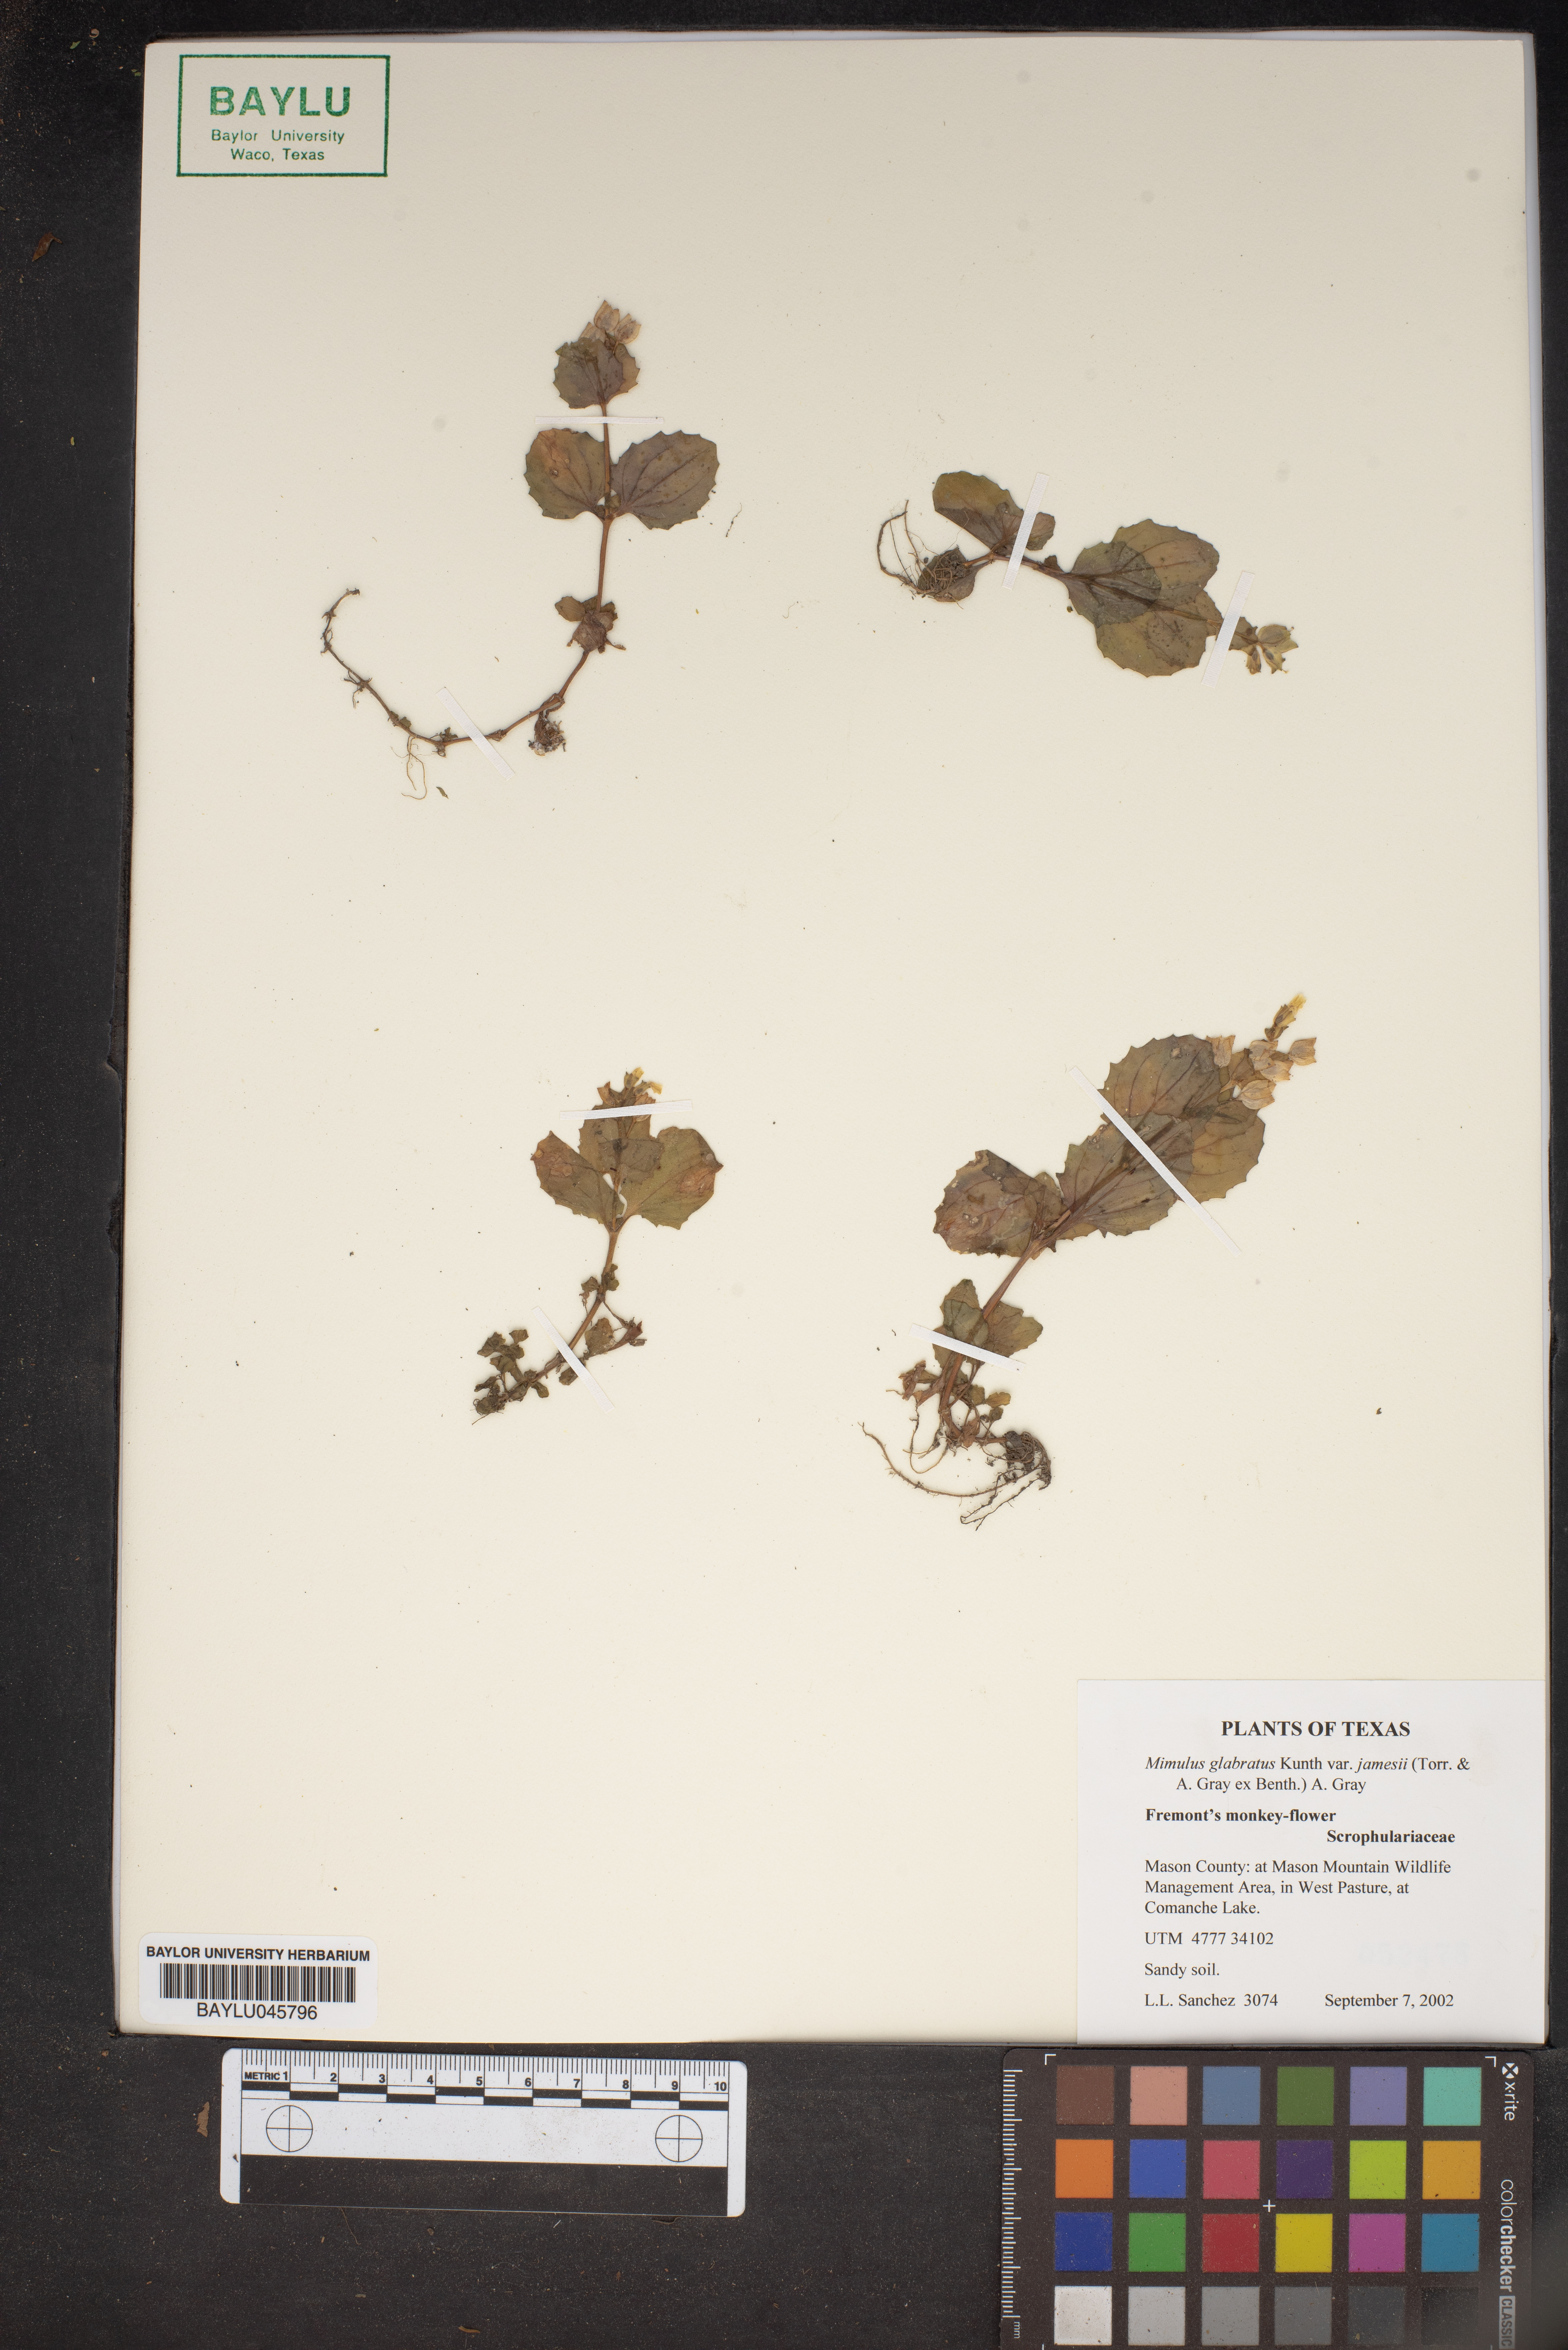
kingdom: Plantae
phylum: Tracheophyta
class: Magnoliopsida
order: Lamiales
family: Phrymaceae
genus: Erythranthe
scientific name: Erythranthe geyeri
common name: Geyer's monkeyflower
